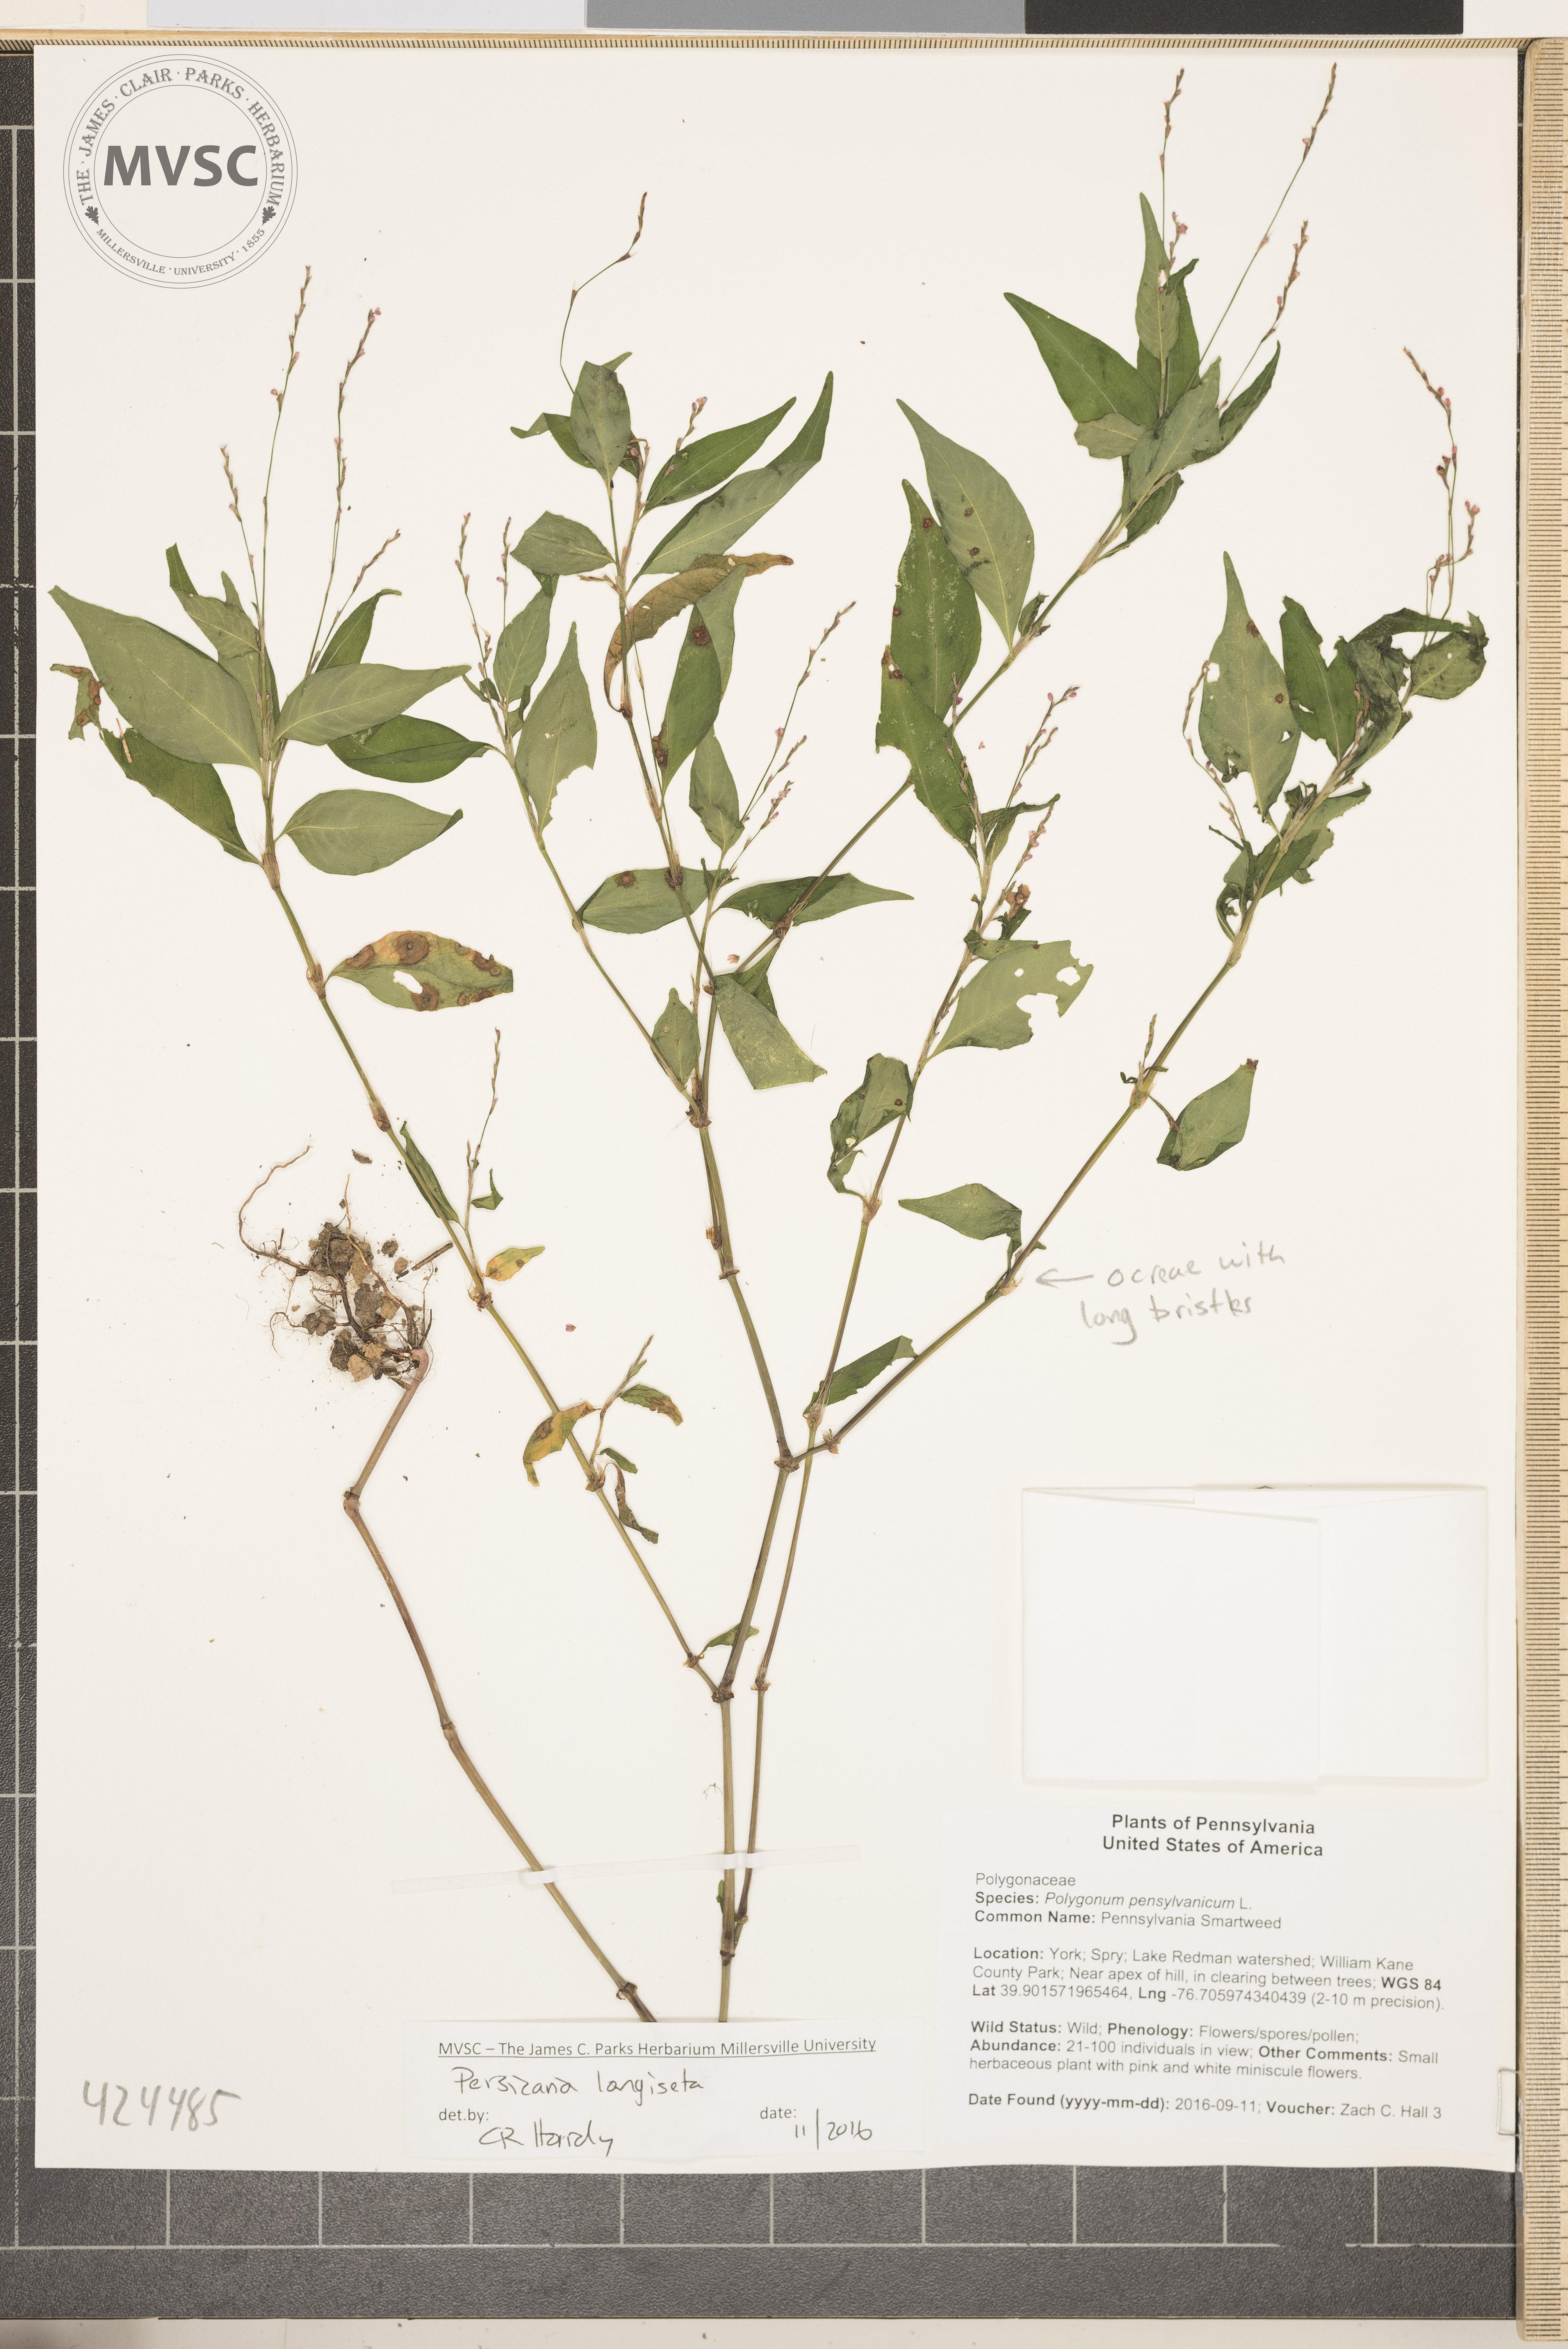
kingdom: Plantae
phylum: Tracheophyta
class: Magnoliopsida
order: Caryophyllales
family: Polygonaceae
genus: Persicaria
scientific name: Persicaria longiseta
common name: Low Smartweed
